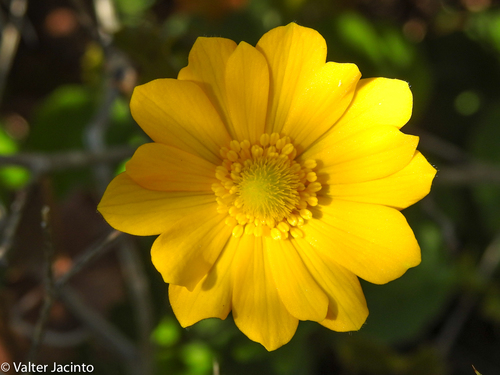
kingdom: Plantae
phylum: Tracheophyta
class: Magnoliopsida
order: Ranunculales
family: Ranunculaceae
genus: Anemone
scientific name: Anemone palmata
